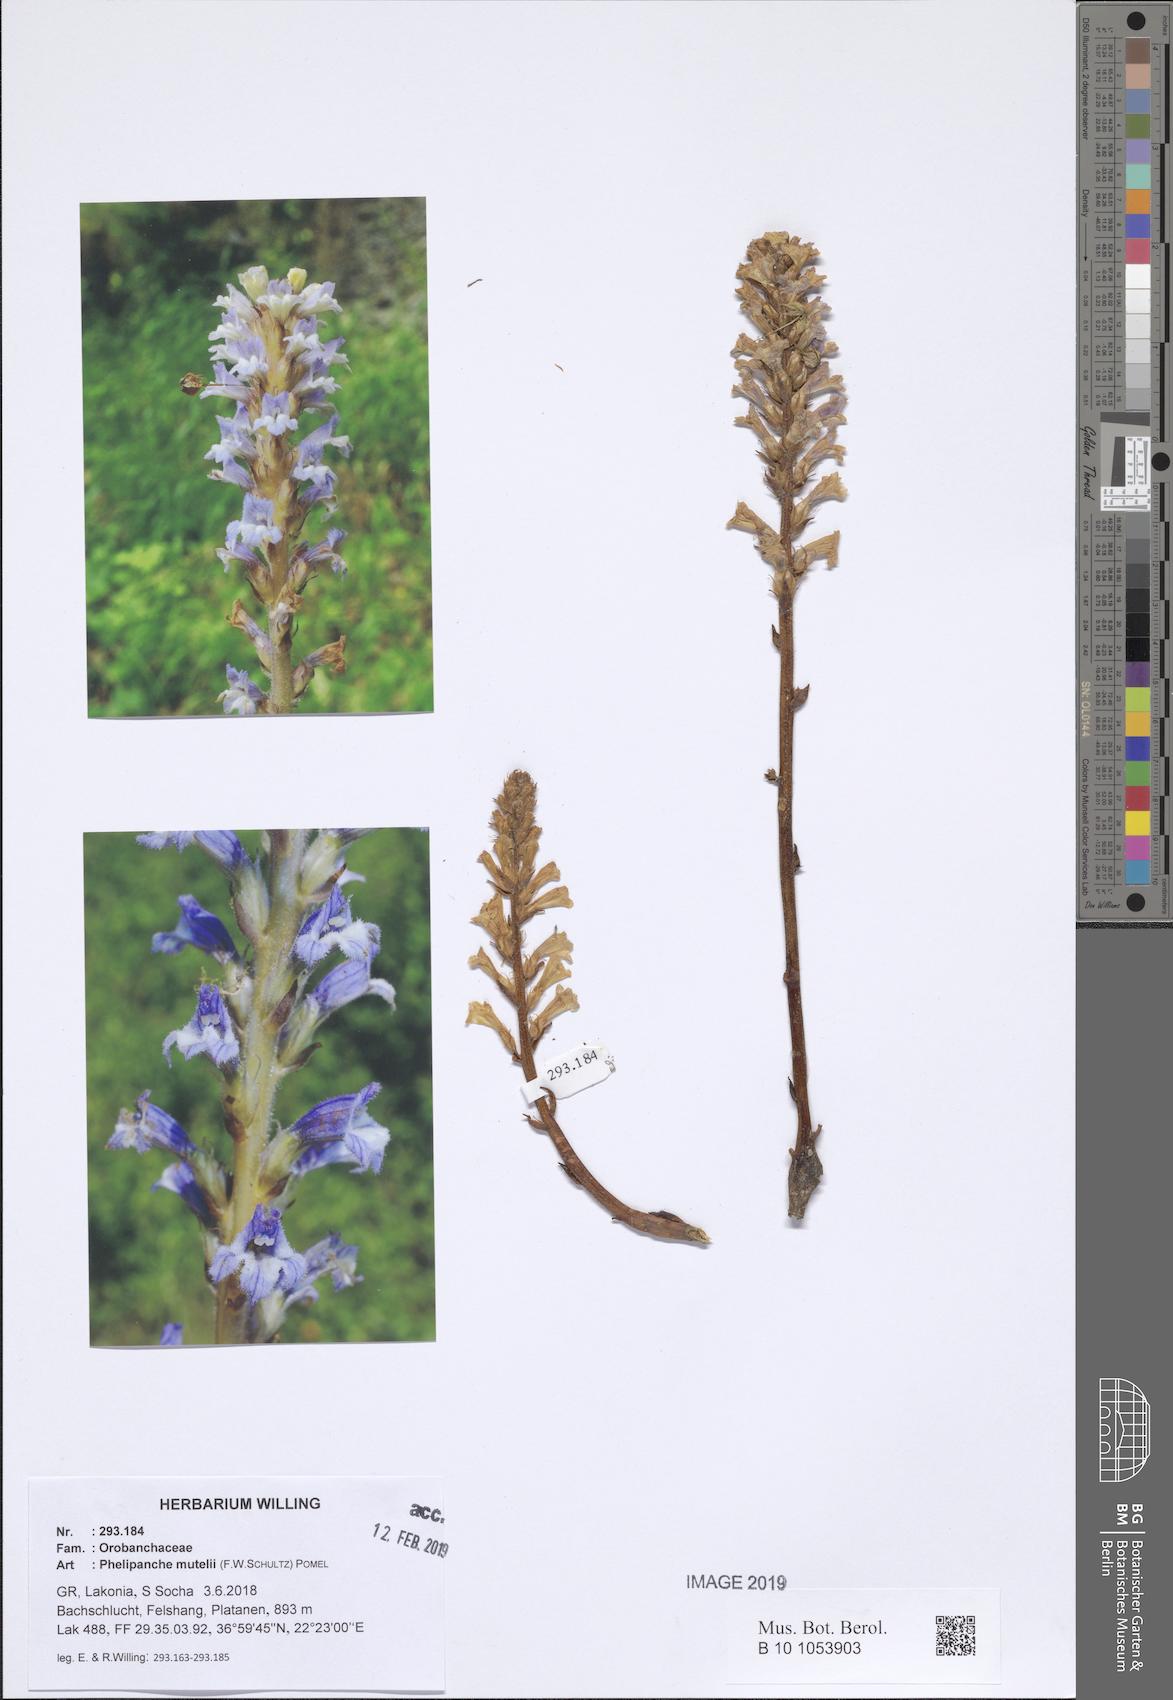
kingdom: Plantae
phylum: Tracheophyta
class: Magnoliopsida
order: Lamiales
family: Orobanchaceae
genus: Phelipanche
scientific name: Phelipanche mutelii
